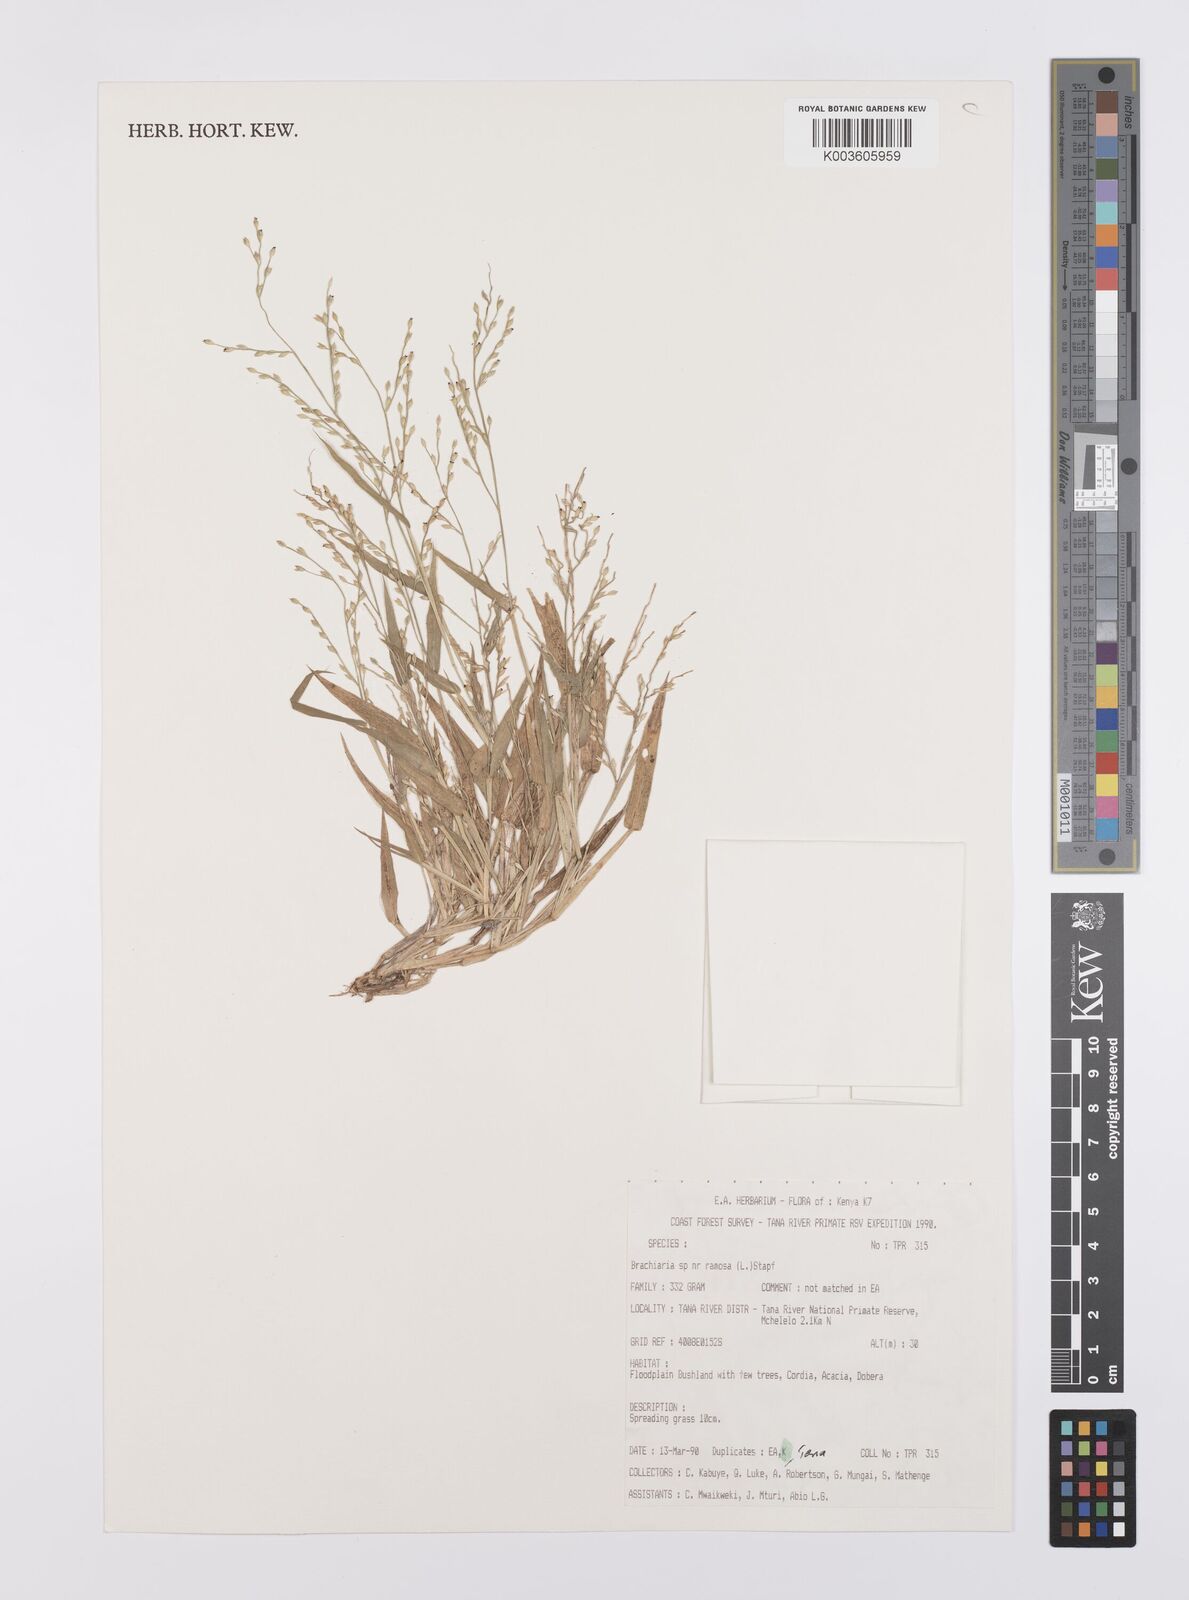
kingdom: Plantae
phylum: Tracheophyta
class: Liliopsida
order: Poales
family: Poaceae
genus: Urochloa
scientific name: Urochloa ramosa
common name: Browntop millet
